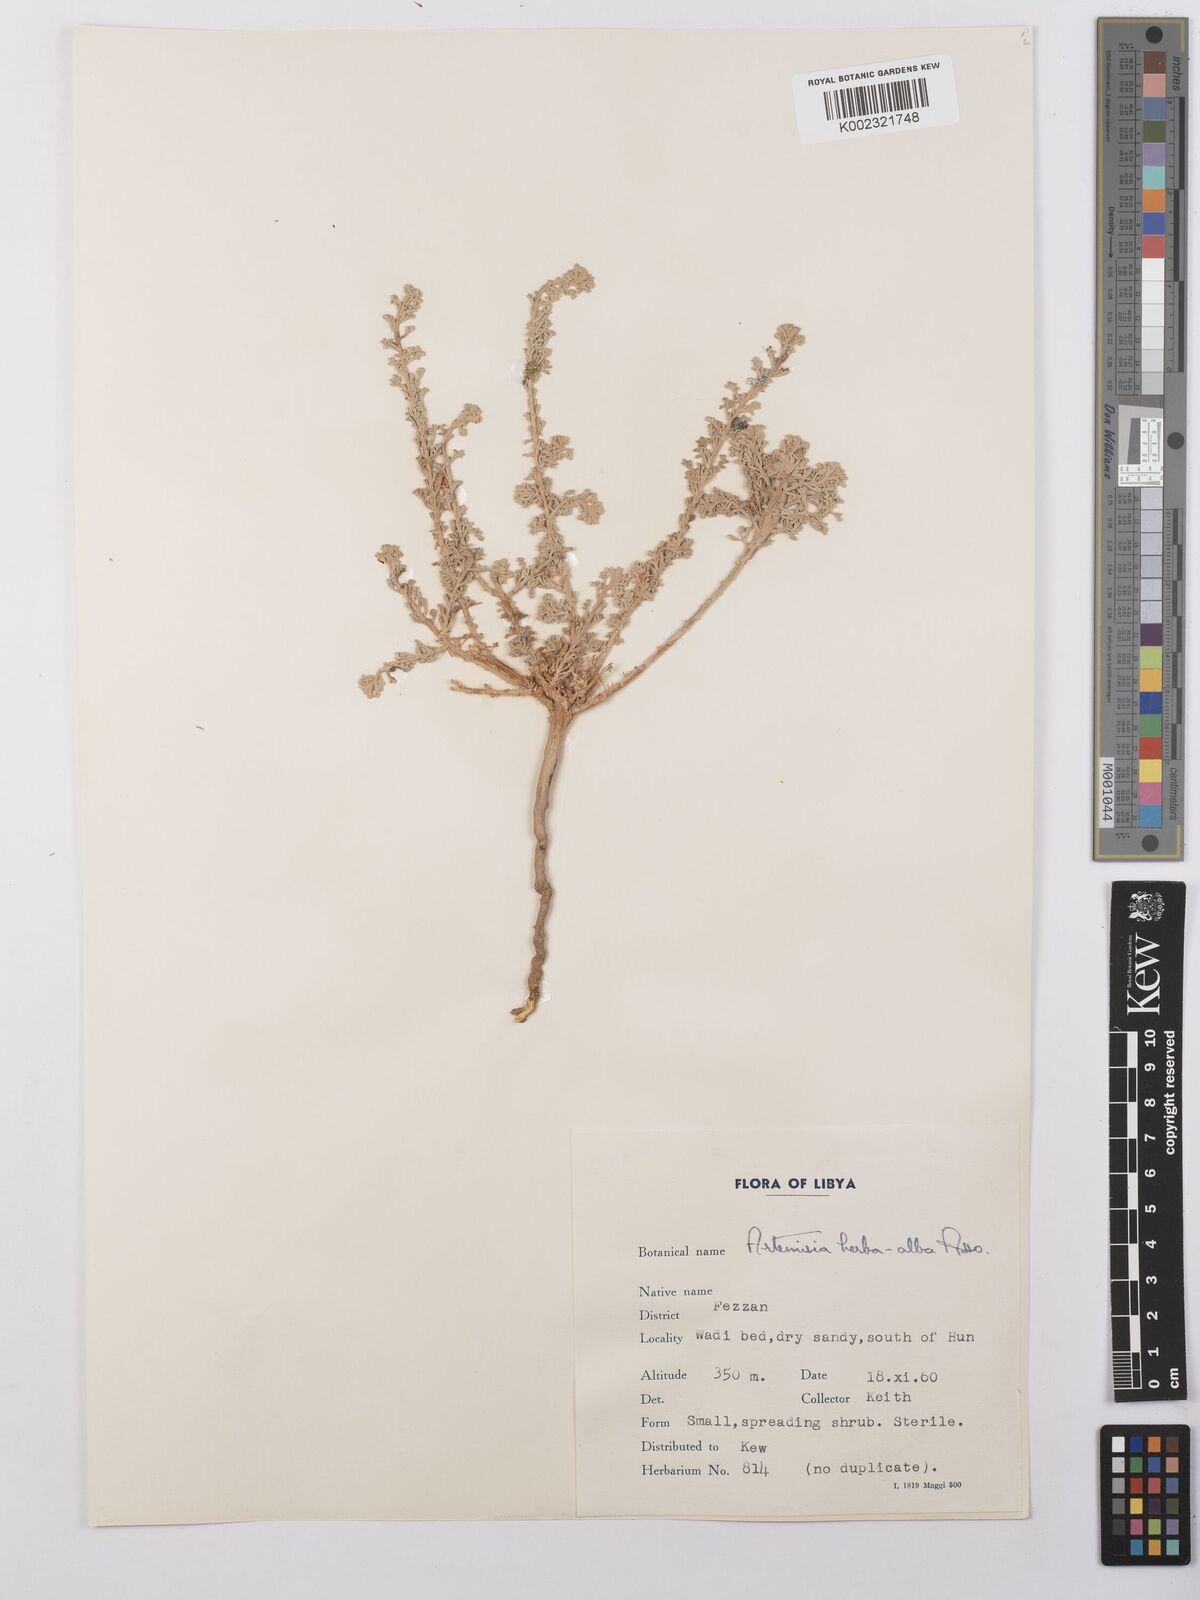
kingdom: Plantae
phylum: Tracheophyta
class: Magnoliopsida
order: Asterales
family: Asteraceae
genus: Artemisia
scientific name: Artemisia herba-alba
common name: White wormwood
